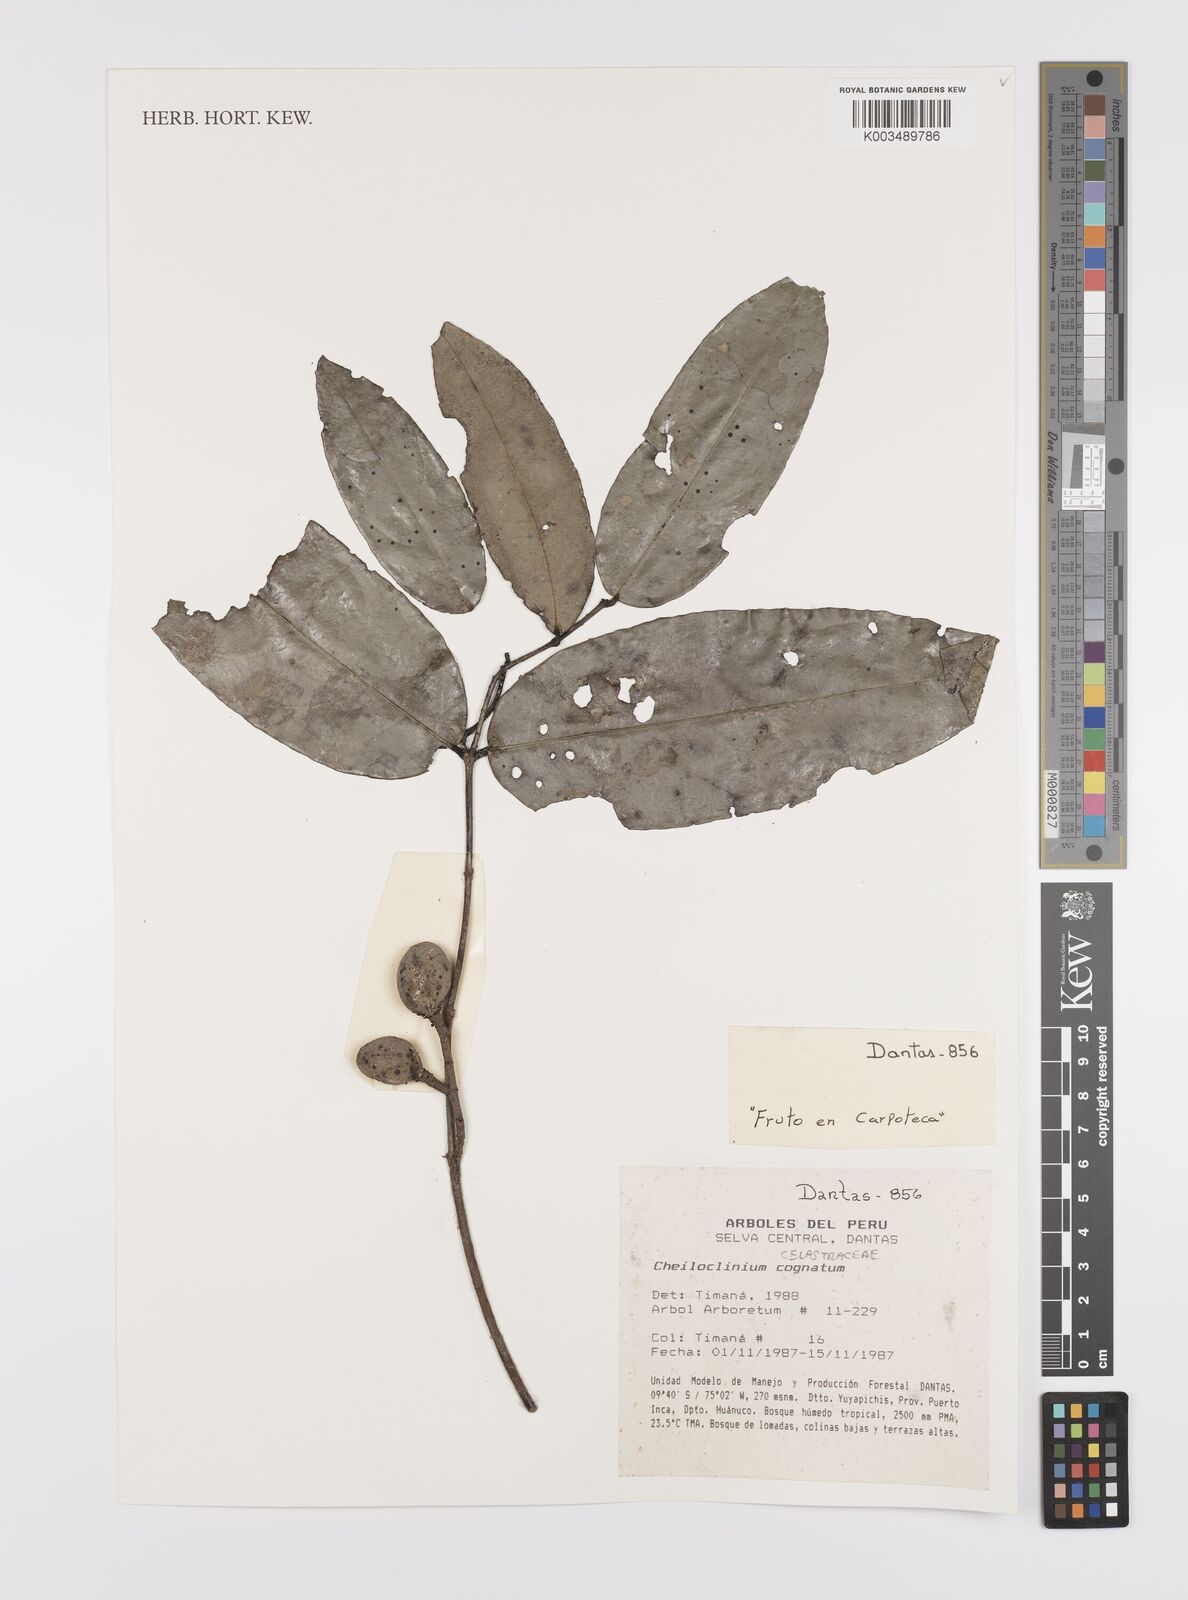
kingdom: Plantae
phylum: Tracheophyta
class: Magnoliopsida
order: Celastrales
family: Celastraceae
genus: Cheiloclinium
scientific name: Cheiloclinium cognatum
